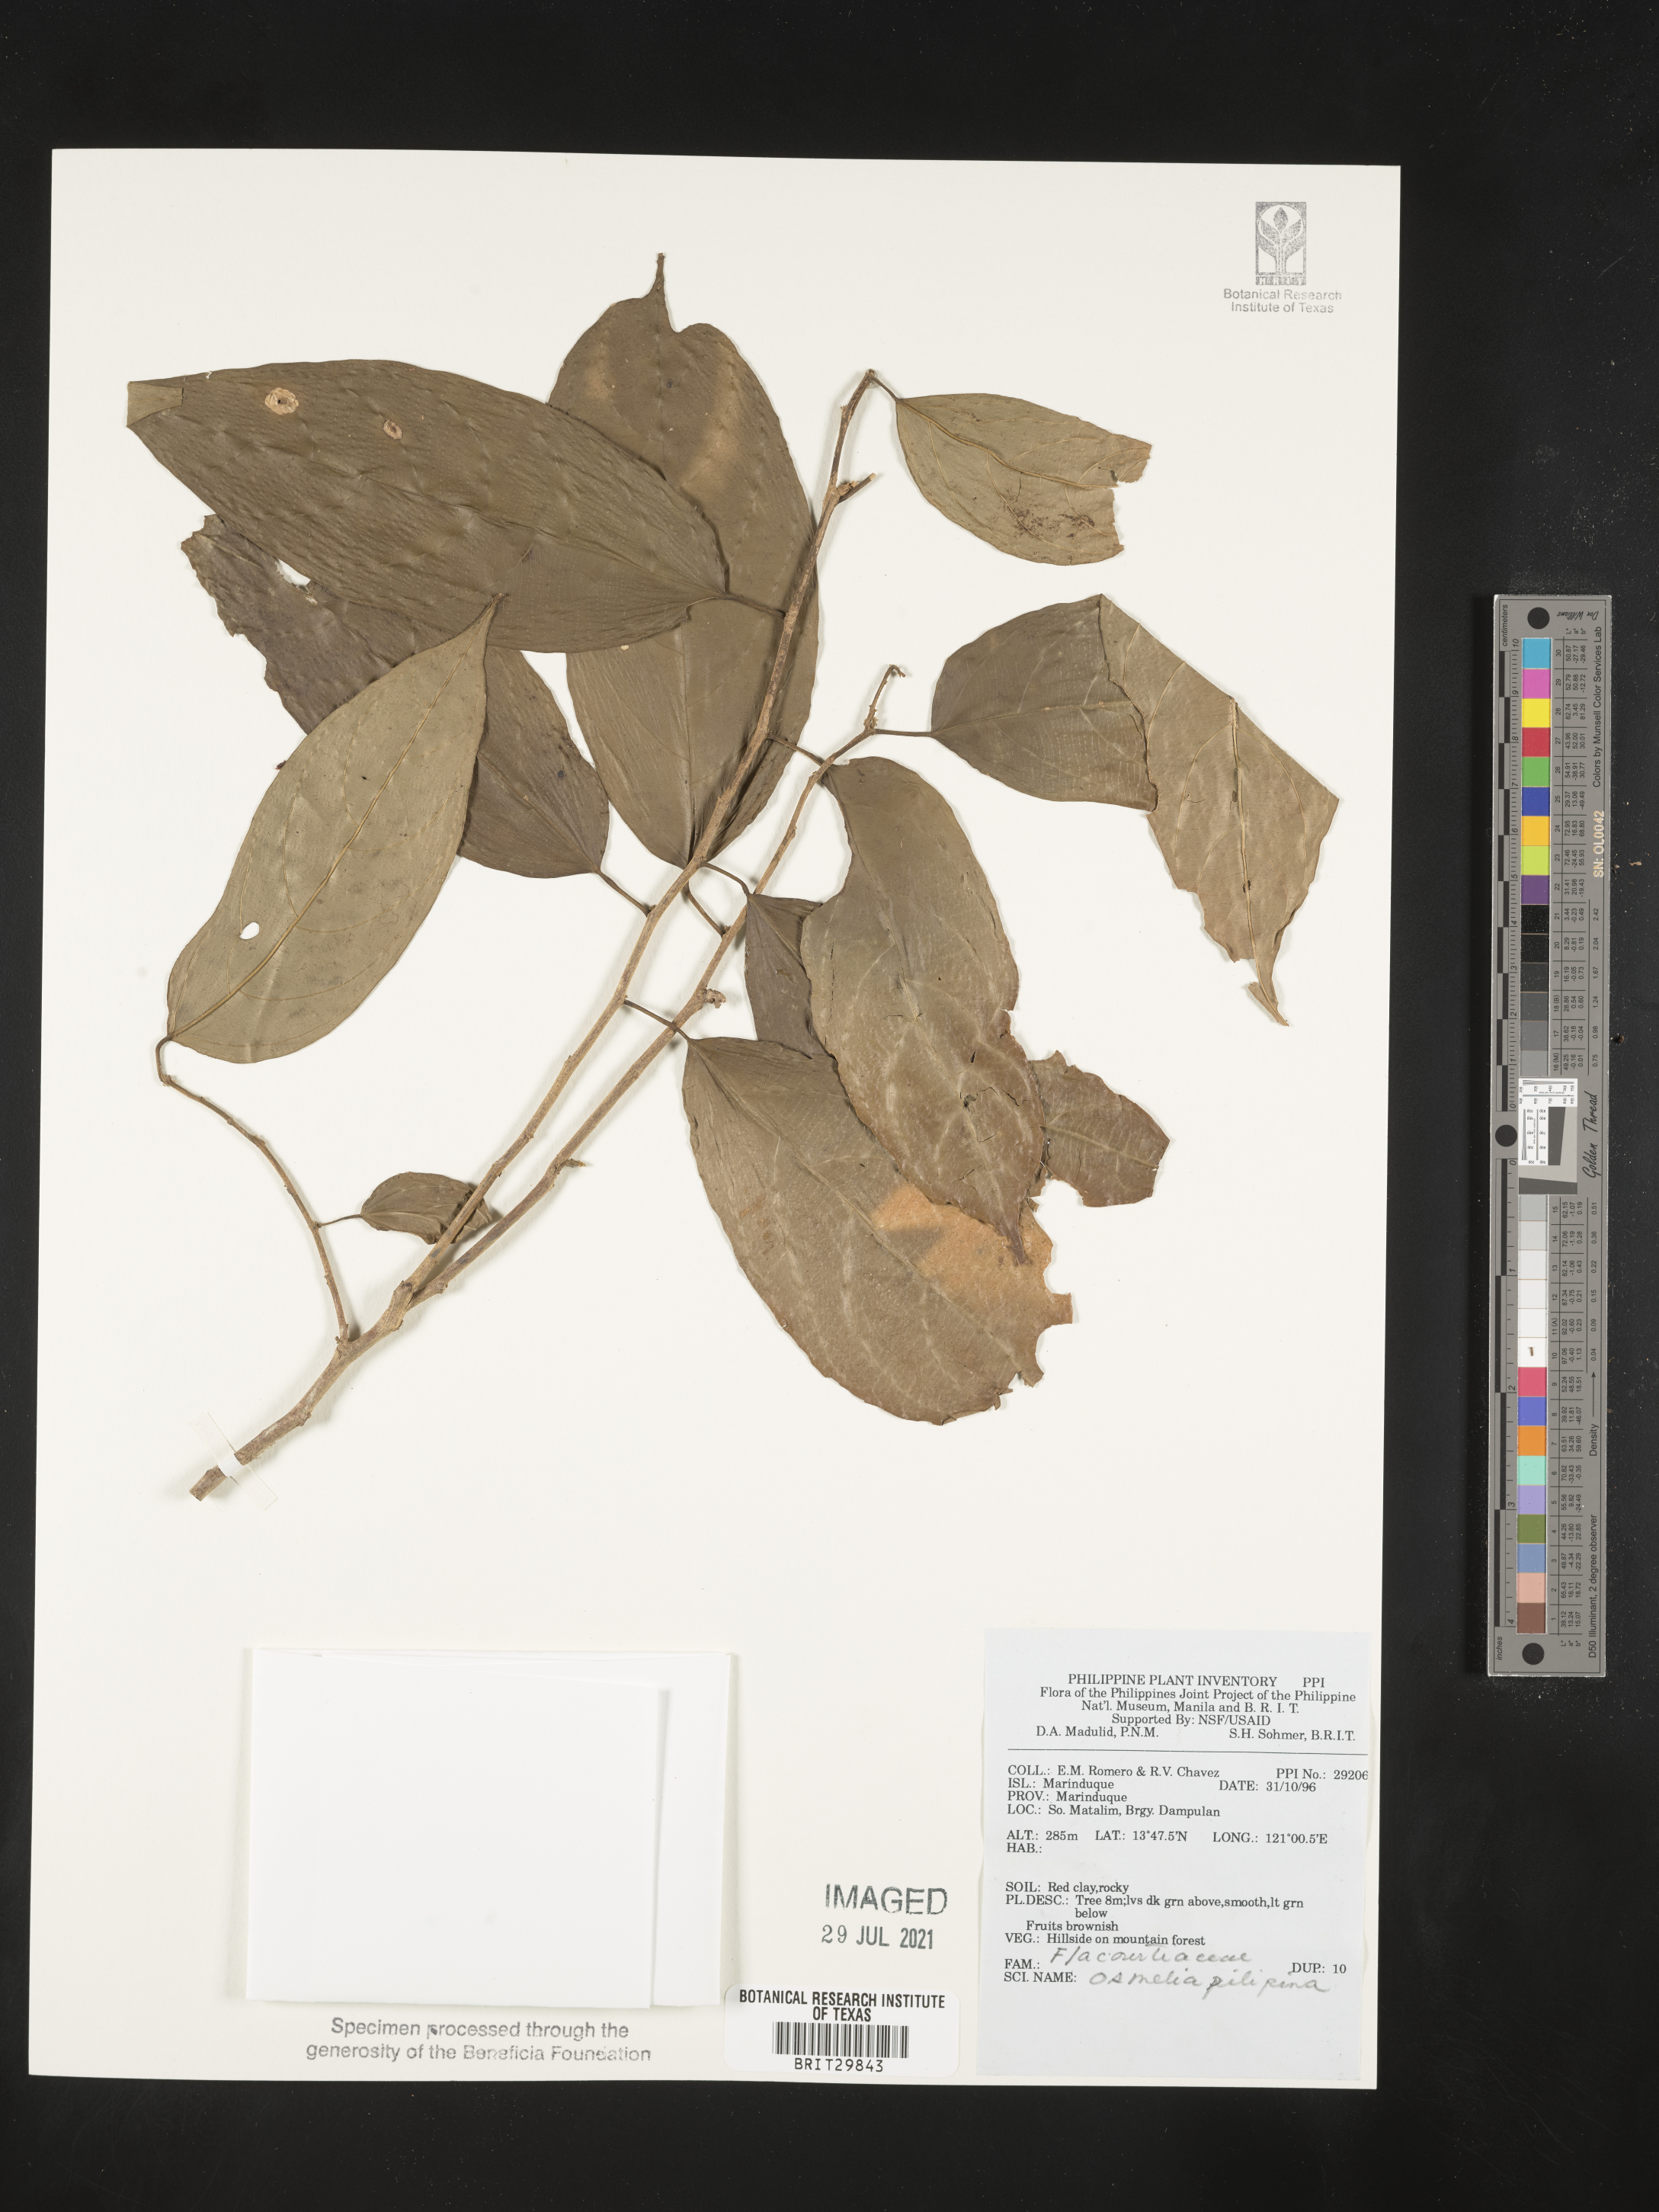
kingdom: Plantae
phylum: Tracheophyta
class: Magnoliopsida
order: Malpighiales
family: Salicaceae
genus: Osmelia
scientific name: Osmelia
